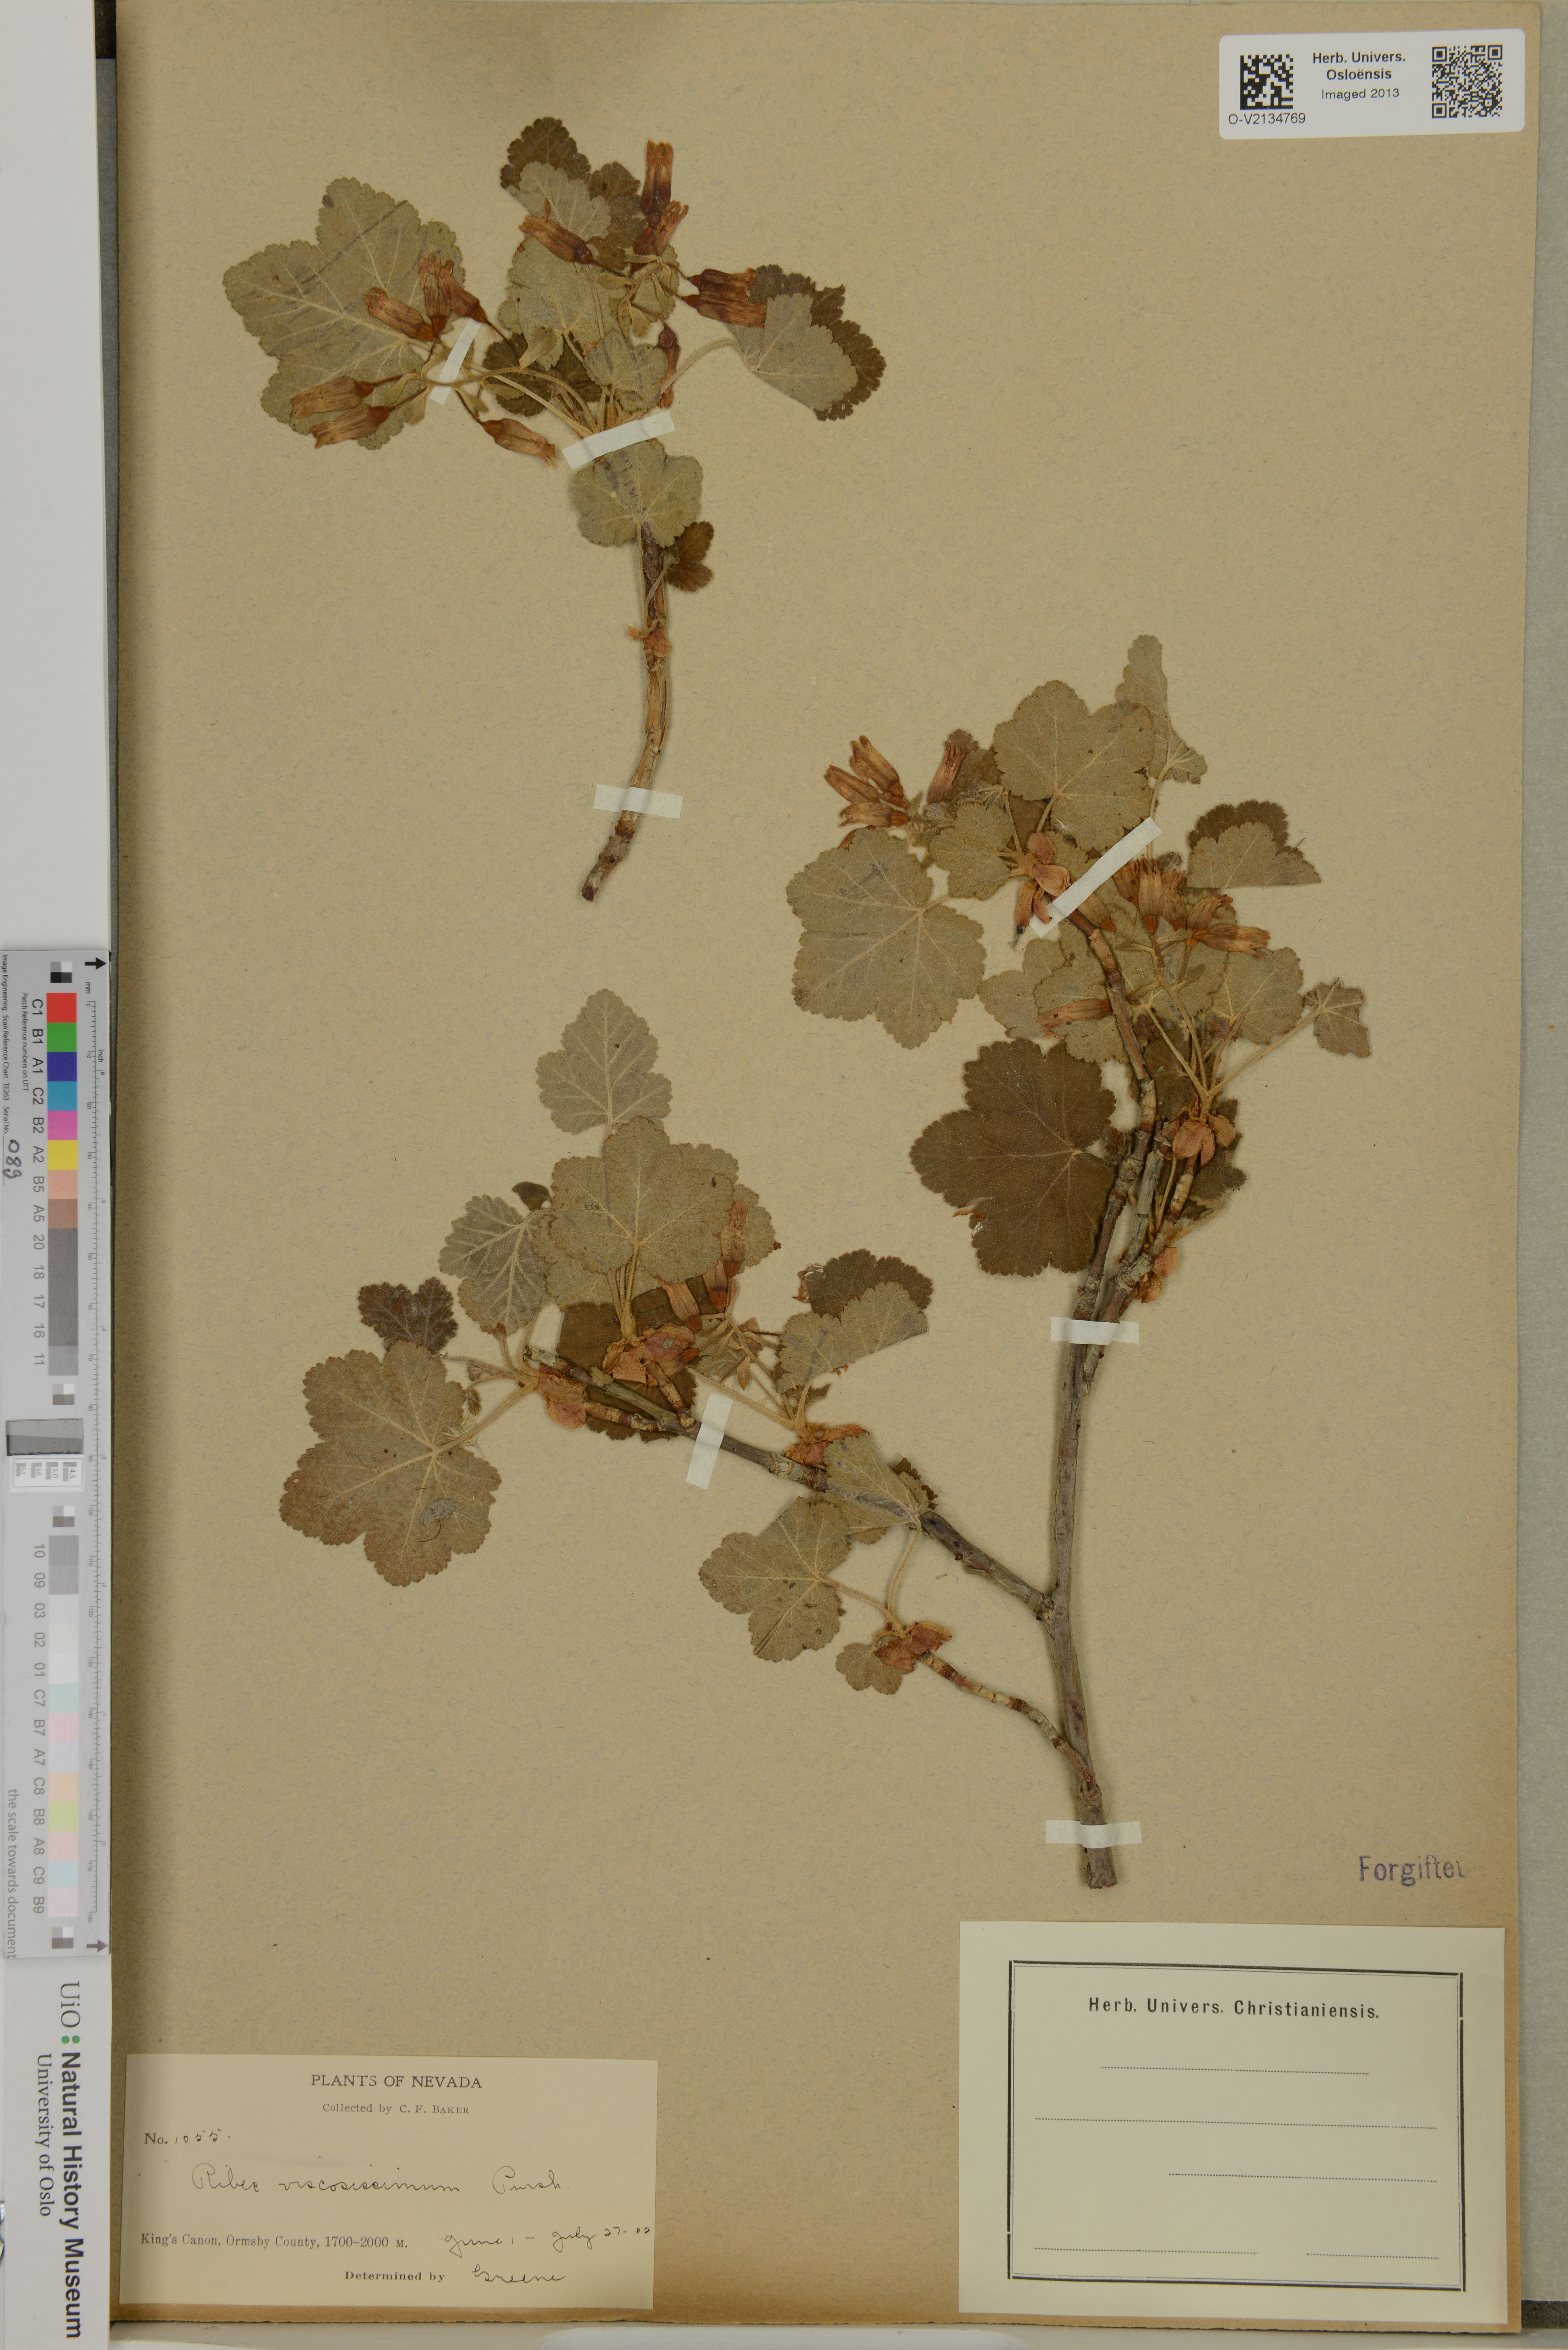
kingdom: Plantae
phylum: Tracheophyta
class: Magnoliopsida
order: Saxifragales
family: Grossulariaceae
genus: Ribes
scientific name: Ribes viscosissimum
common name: Sticky currant
